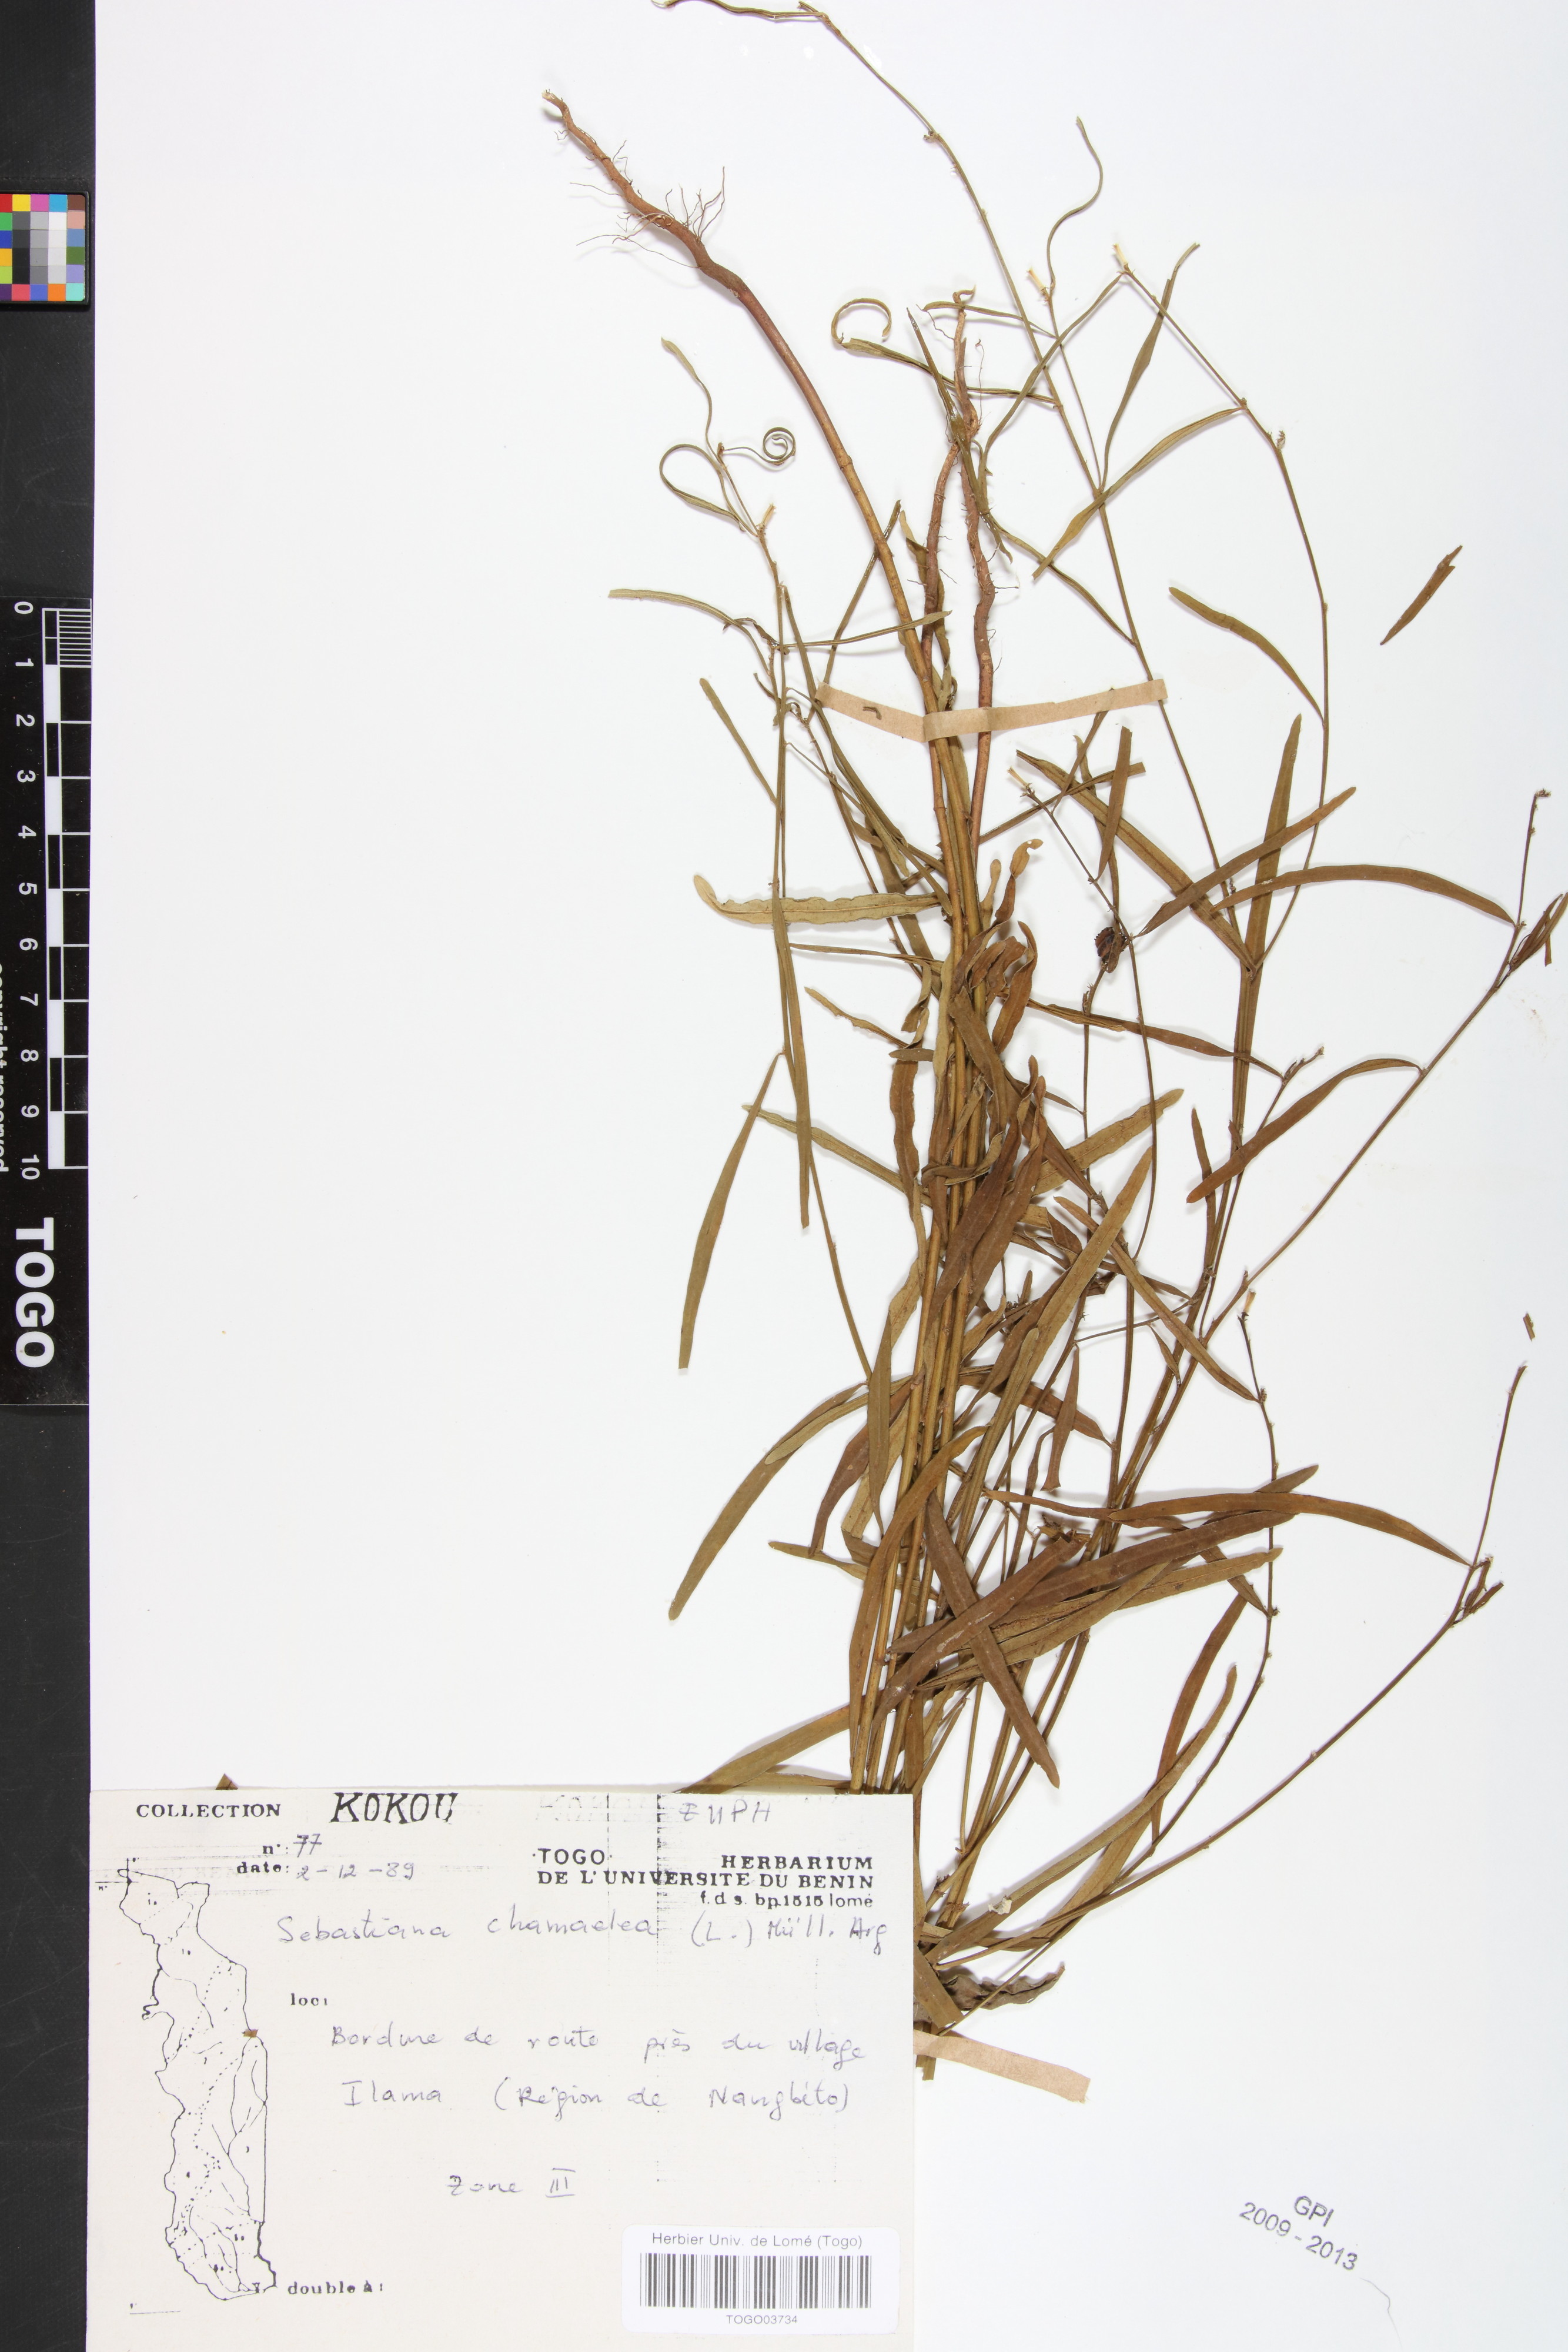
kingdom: Plantae
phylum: Tracheophyta
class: Magnoliopsida
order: Malpighiales
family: Euphorbiaceae
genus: Microstachys
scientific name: Microstachys chamaelea
